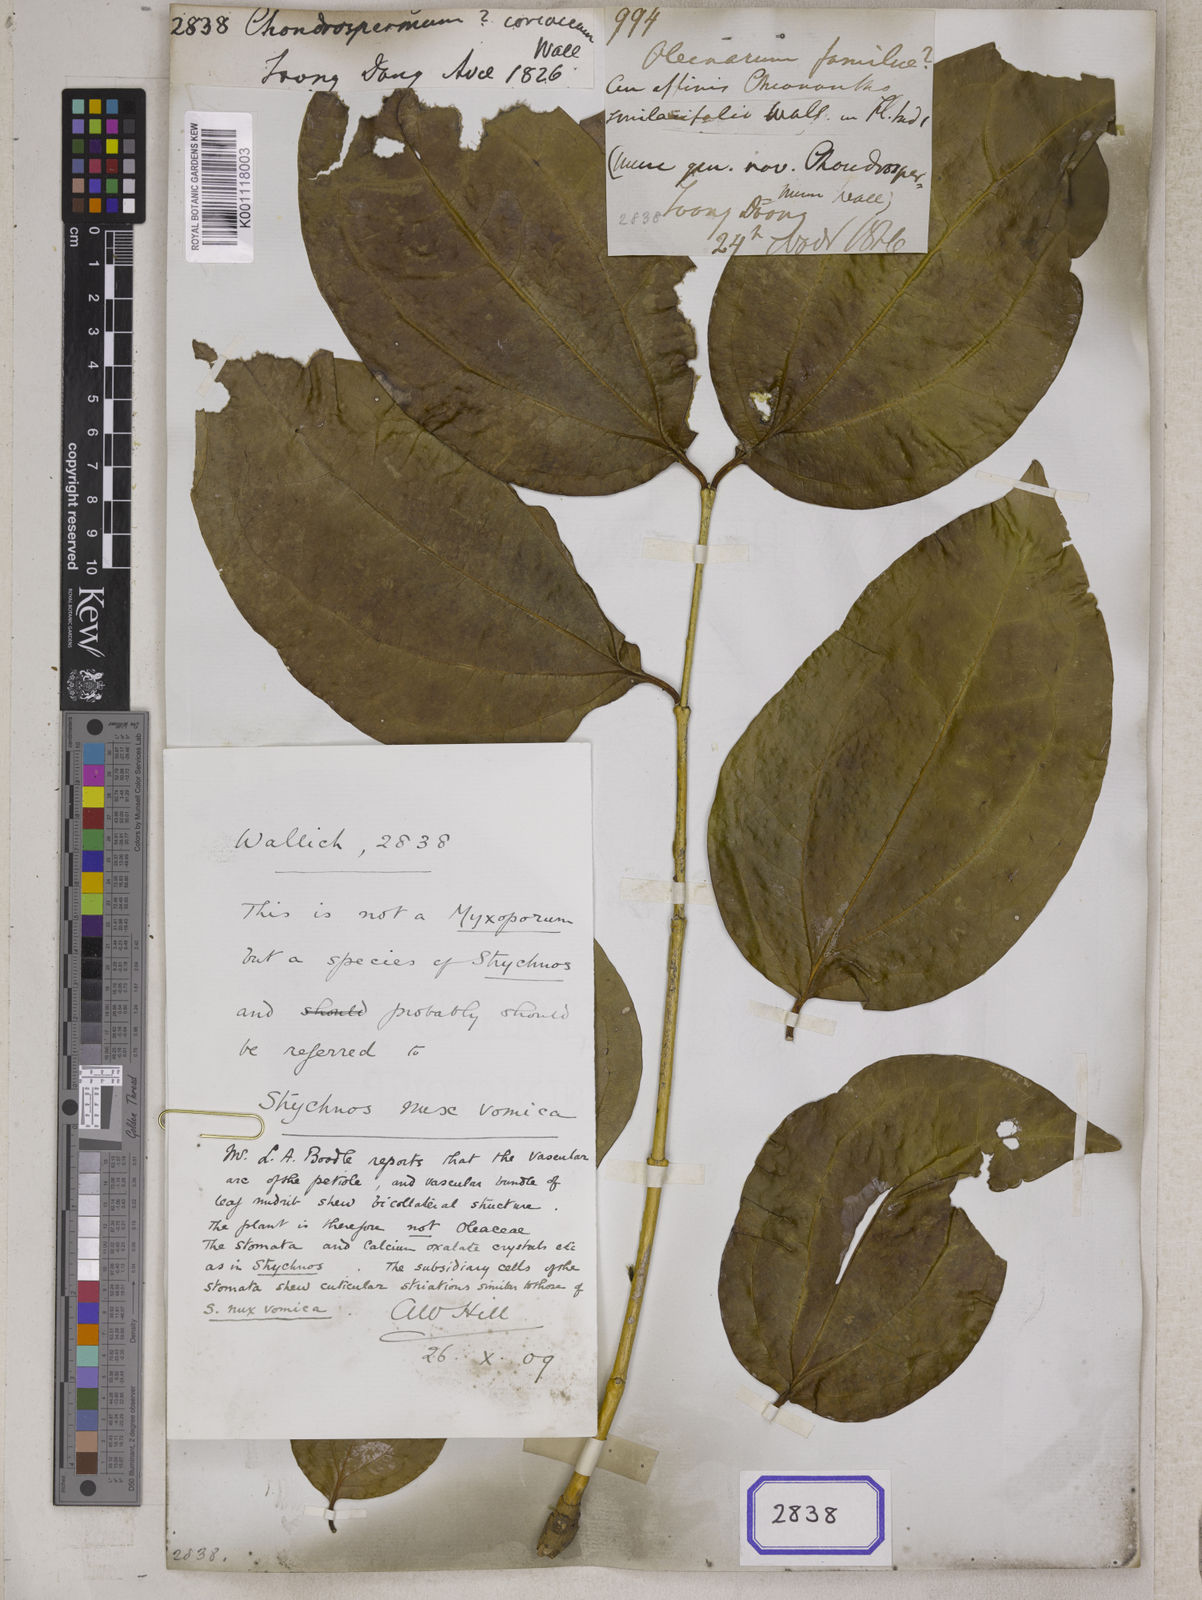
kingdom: Plantae
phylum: Tracheophyta
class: Magnoliopsida
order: Lamiales
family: Oleaceae
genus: Chondrospermum
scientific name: Chondrospermum
